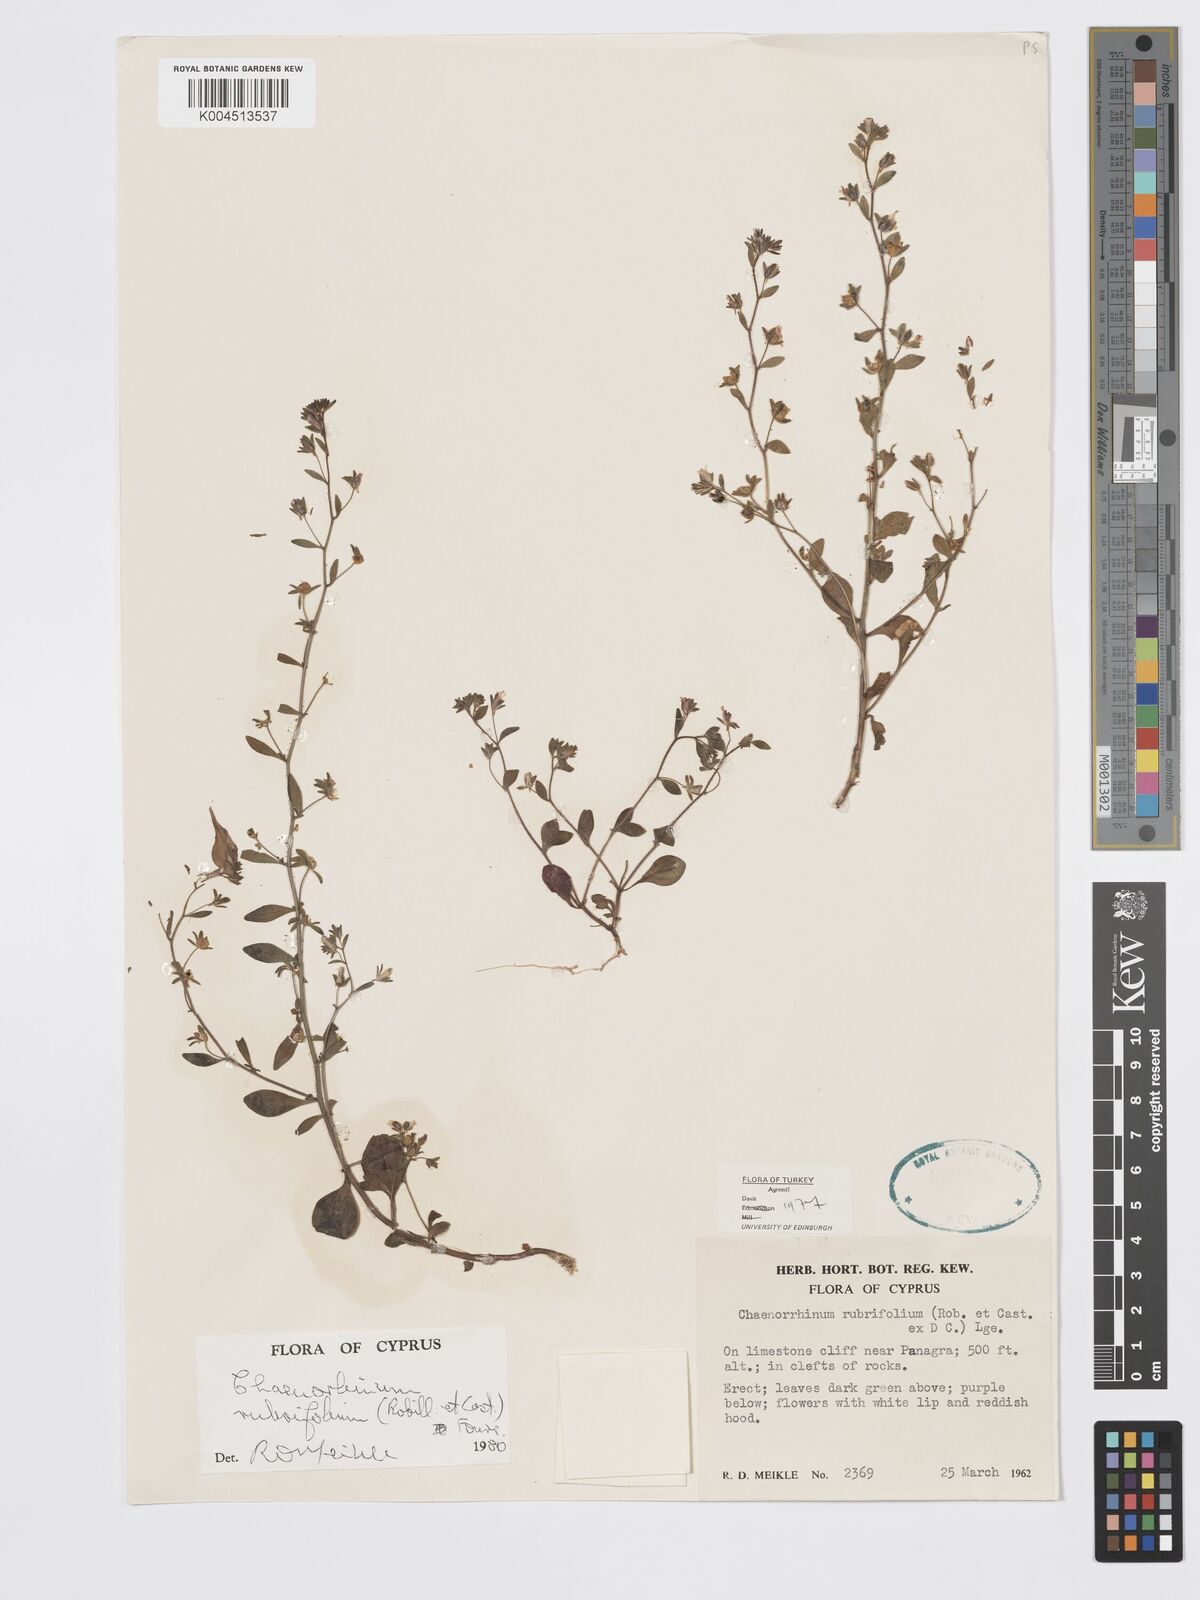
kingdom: Plantae
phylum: Tracheophyta
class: Magnoliopsida
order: Lamiales
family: Plantaginaceae
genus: Chaenorhinum
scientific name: Chaenorhinum rubrifolium
